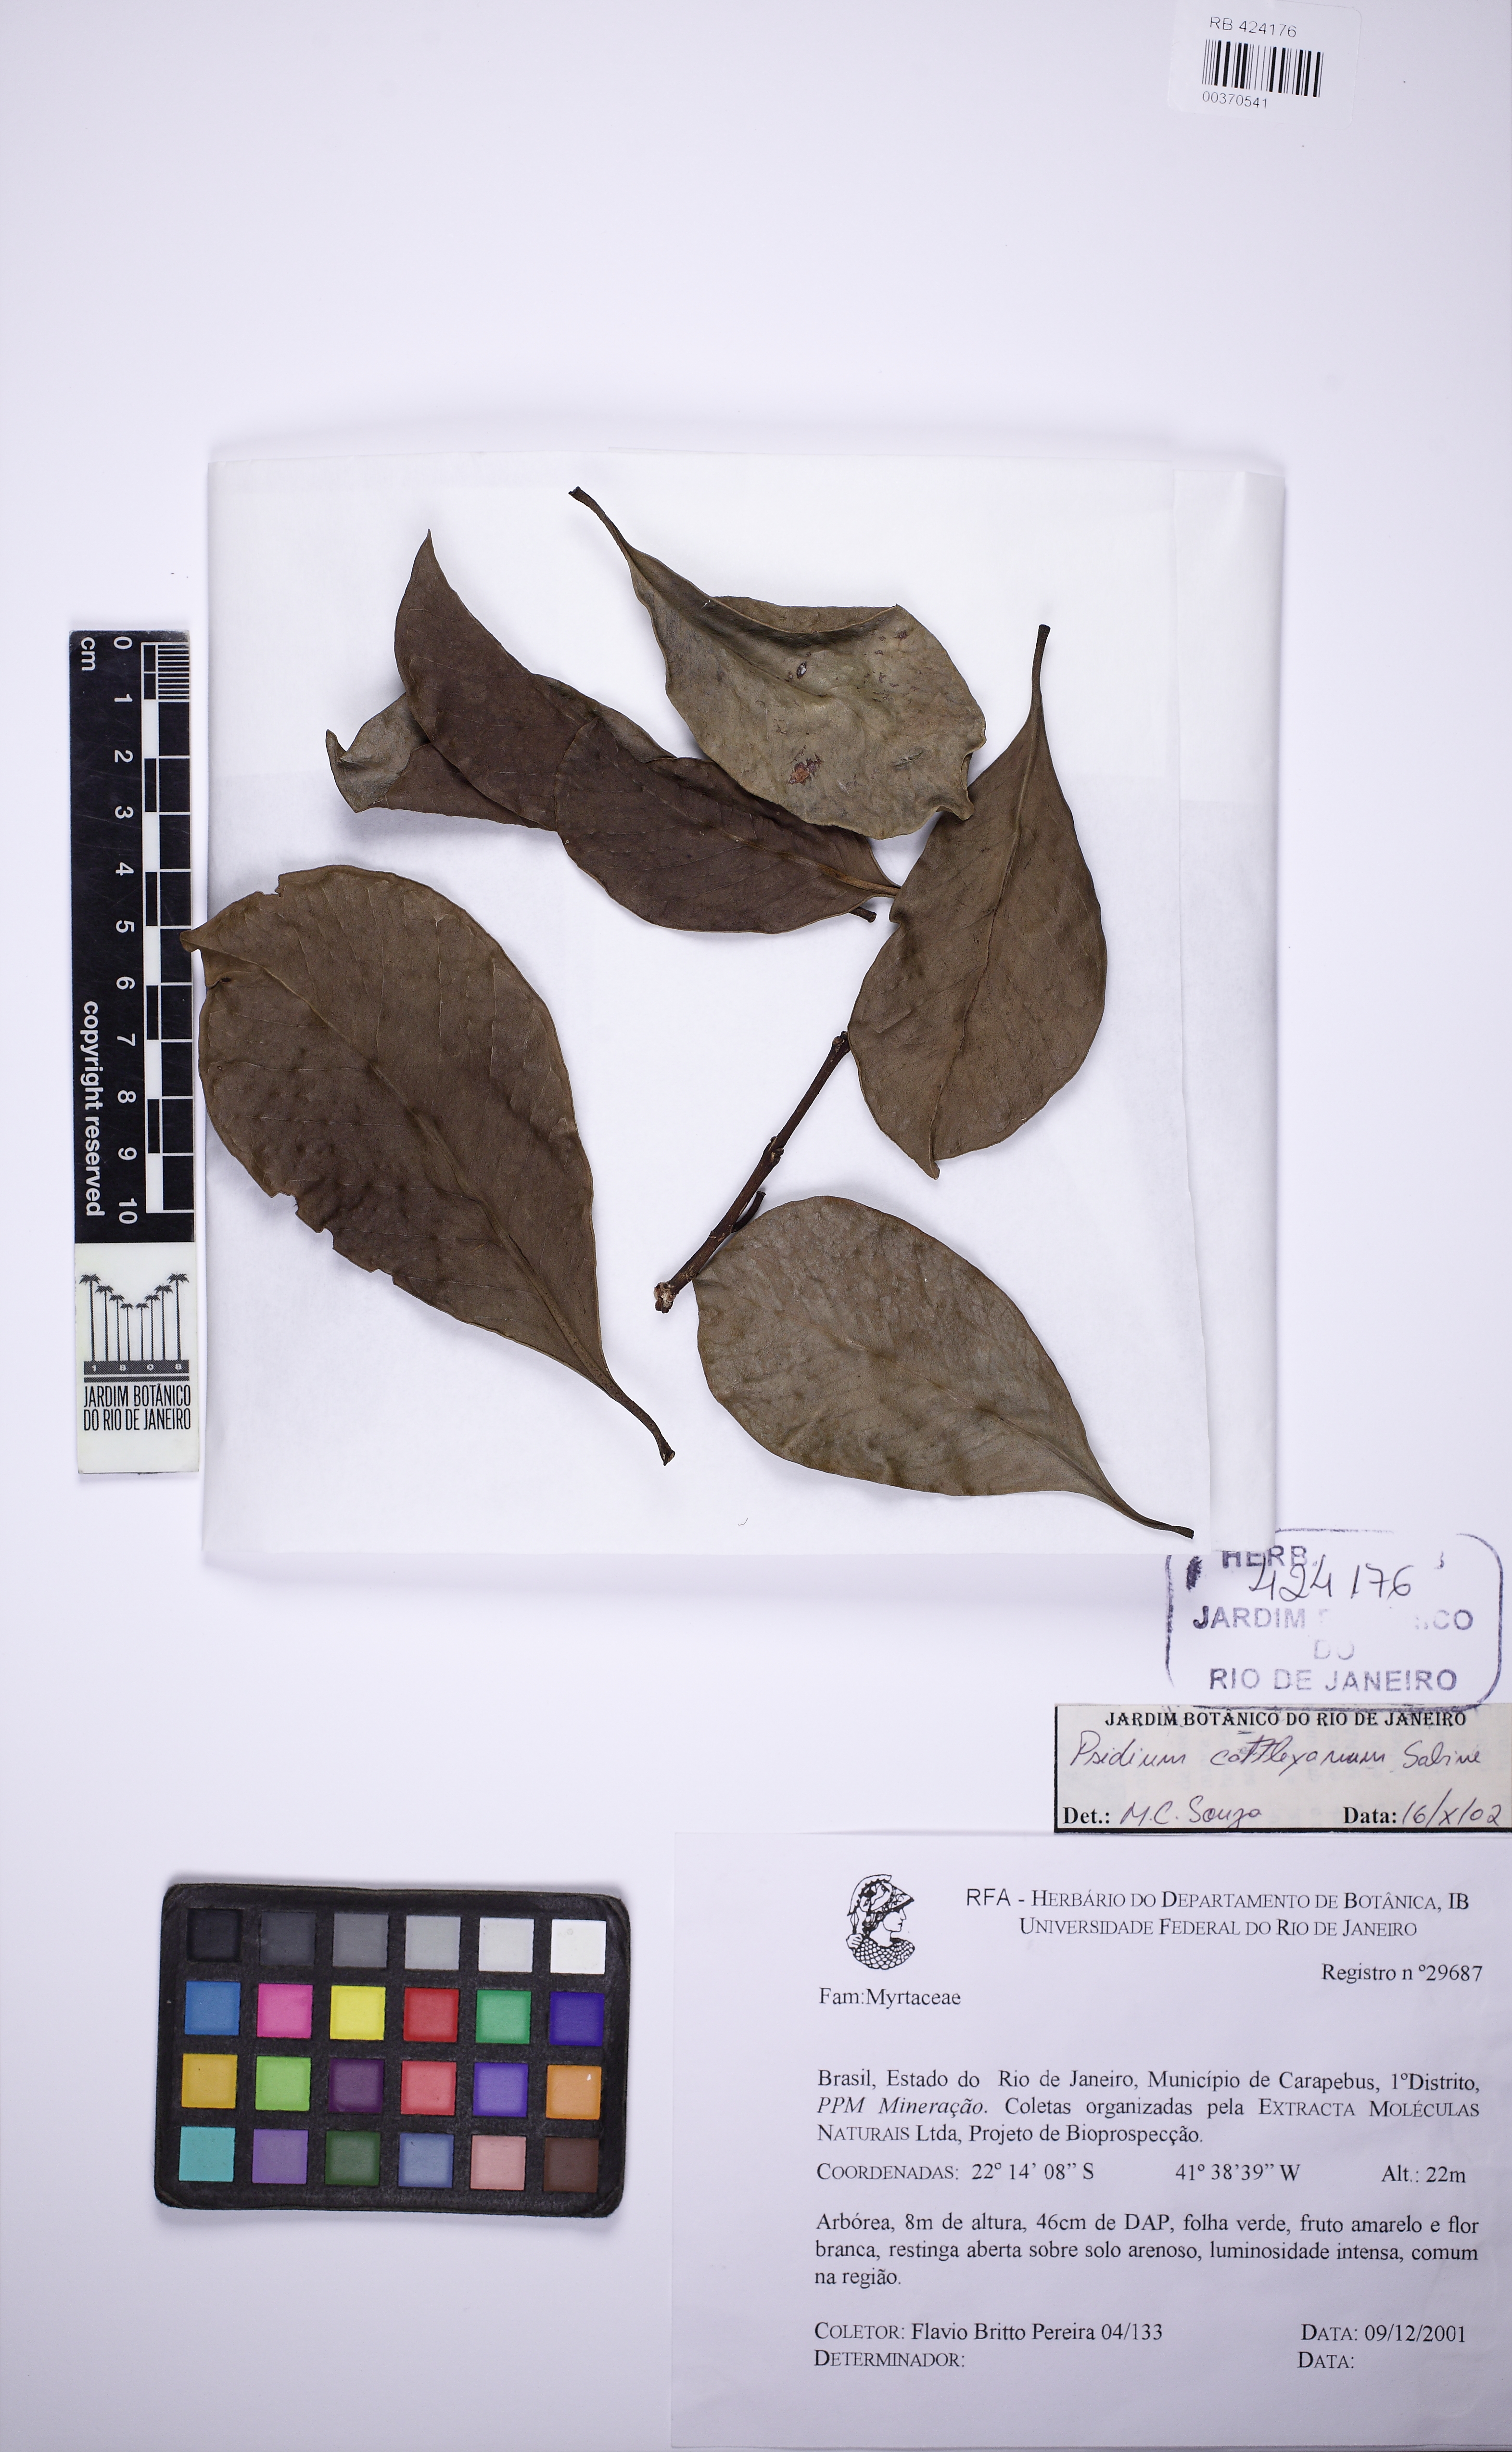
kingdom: Plantae
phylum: Tracheophyta
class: Magnoliopsida
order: Myrtales
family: Myrtaceae
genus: Psidium
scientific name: Psidium cattleianum
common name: Strawberry guava
